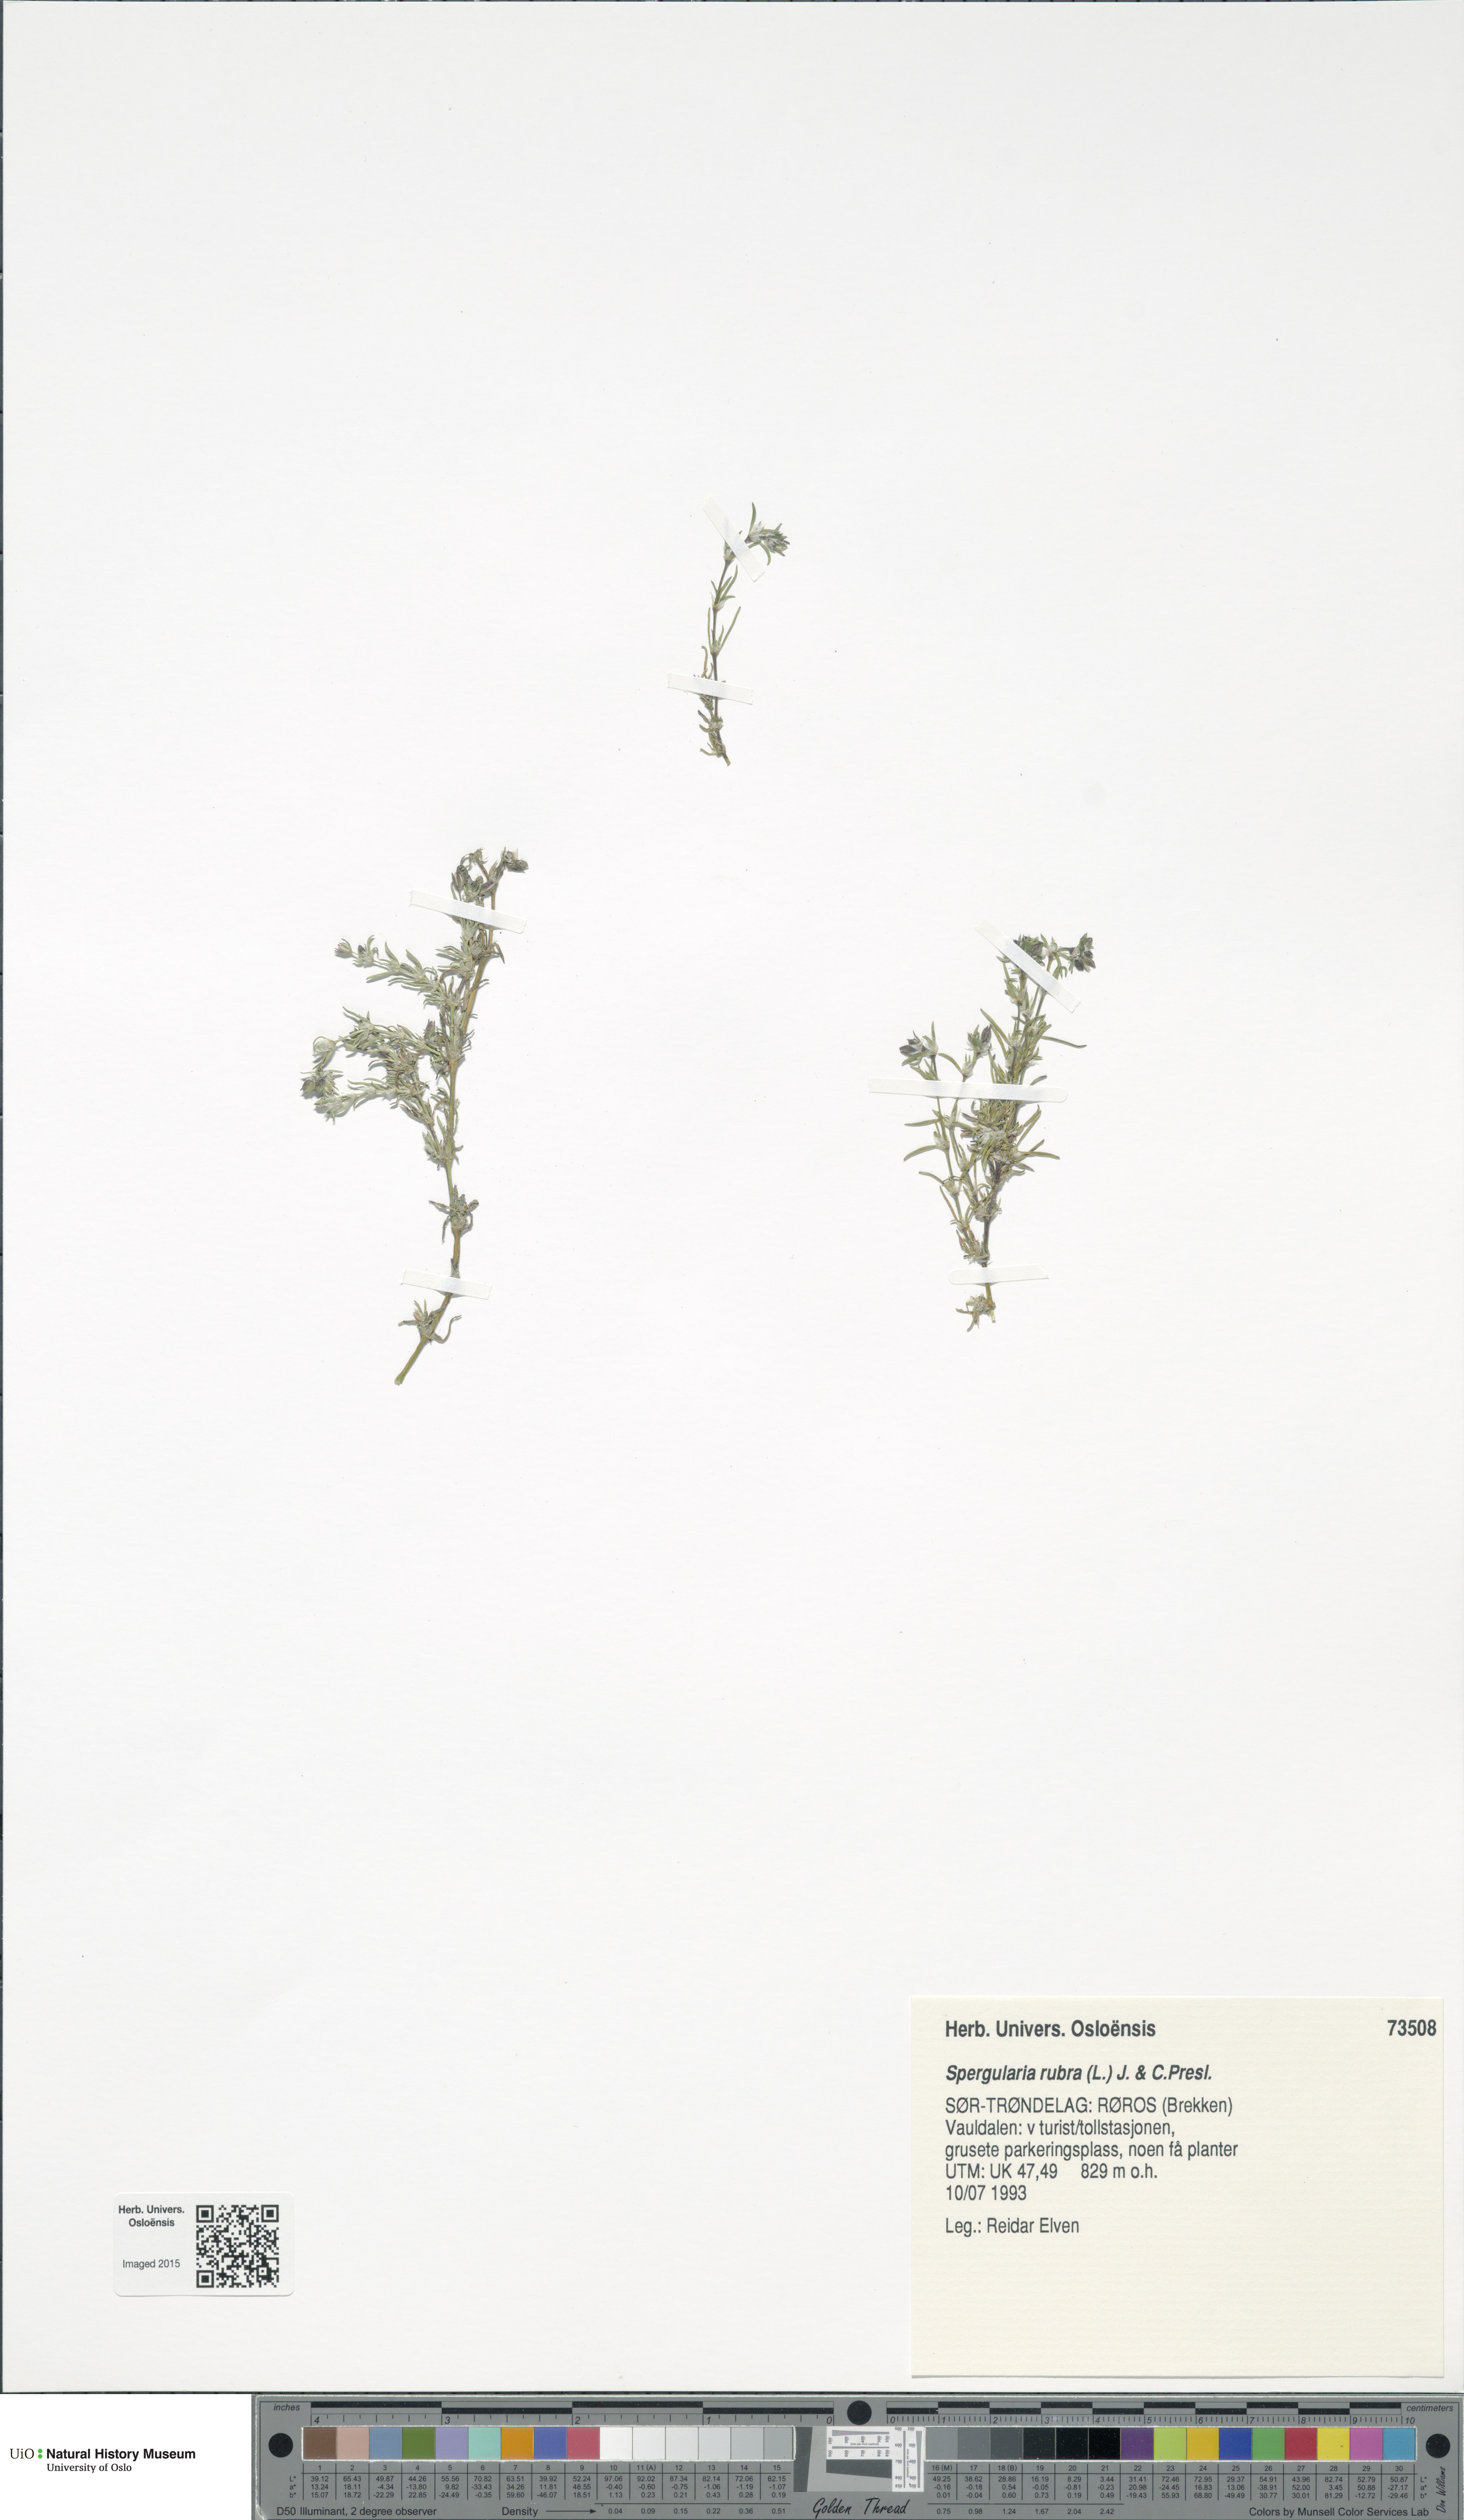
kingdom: Plantae
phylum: Tracheophyta
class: Magnoliopsida
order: Caryophyllales
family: Caryophyllaceae
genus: Spergularia
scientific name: Spergularia rubra
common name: Red sand-spurrey
